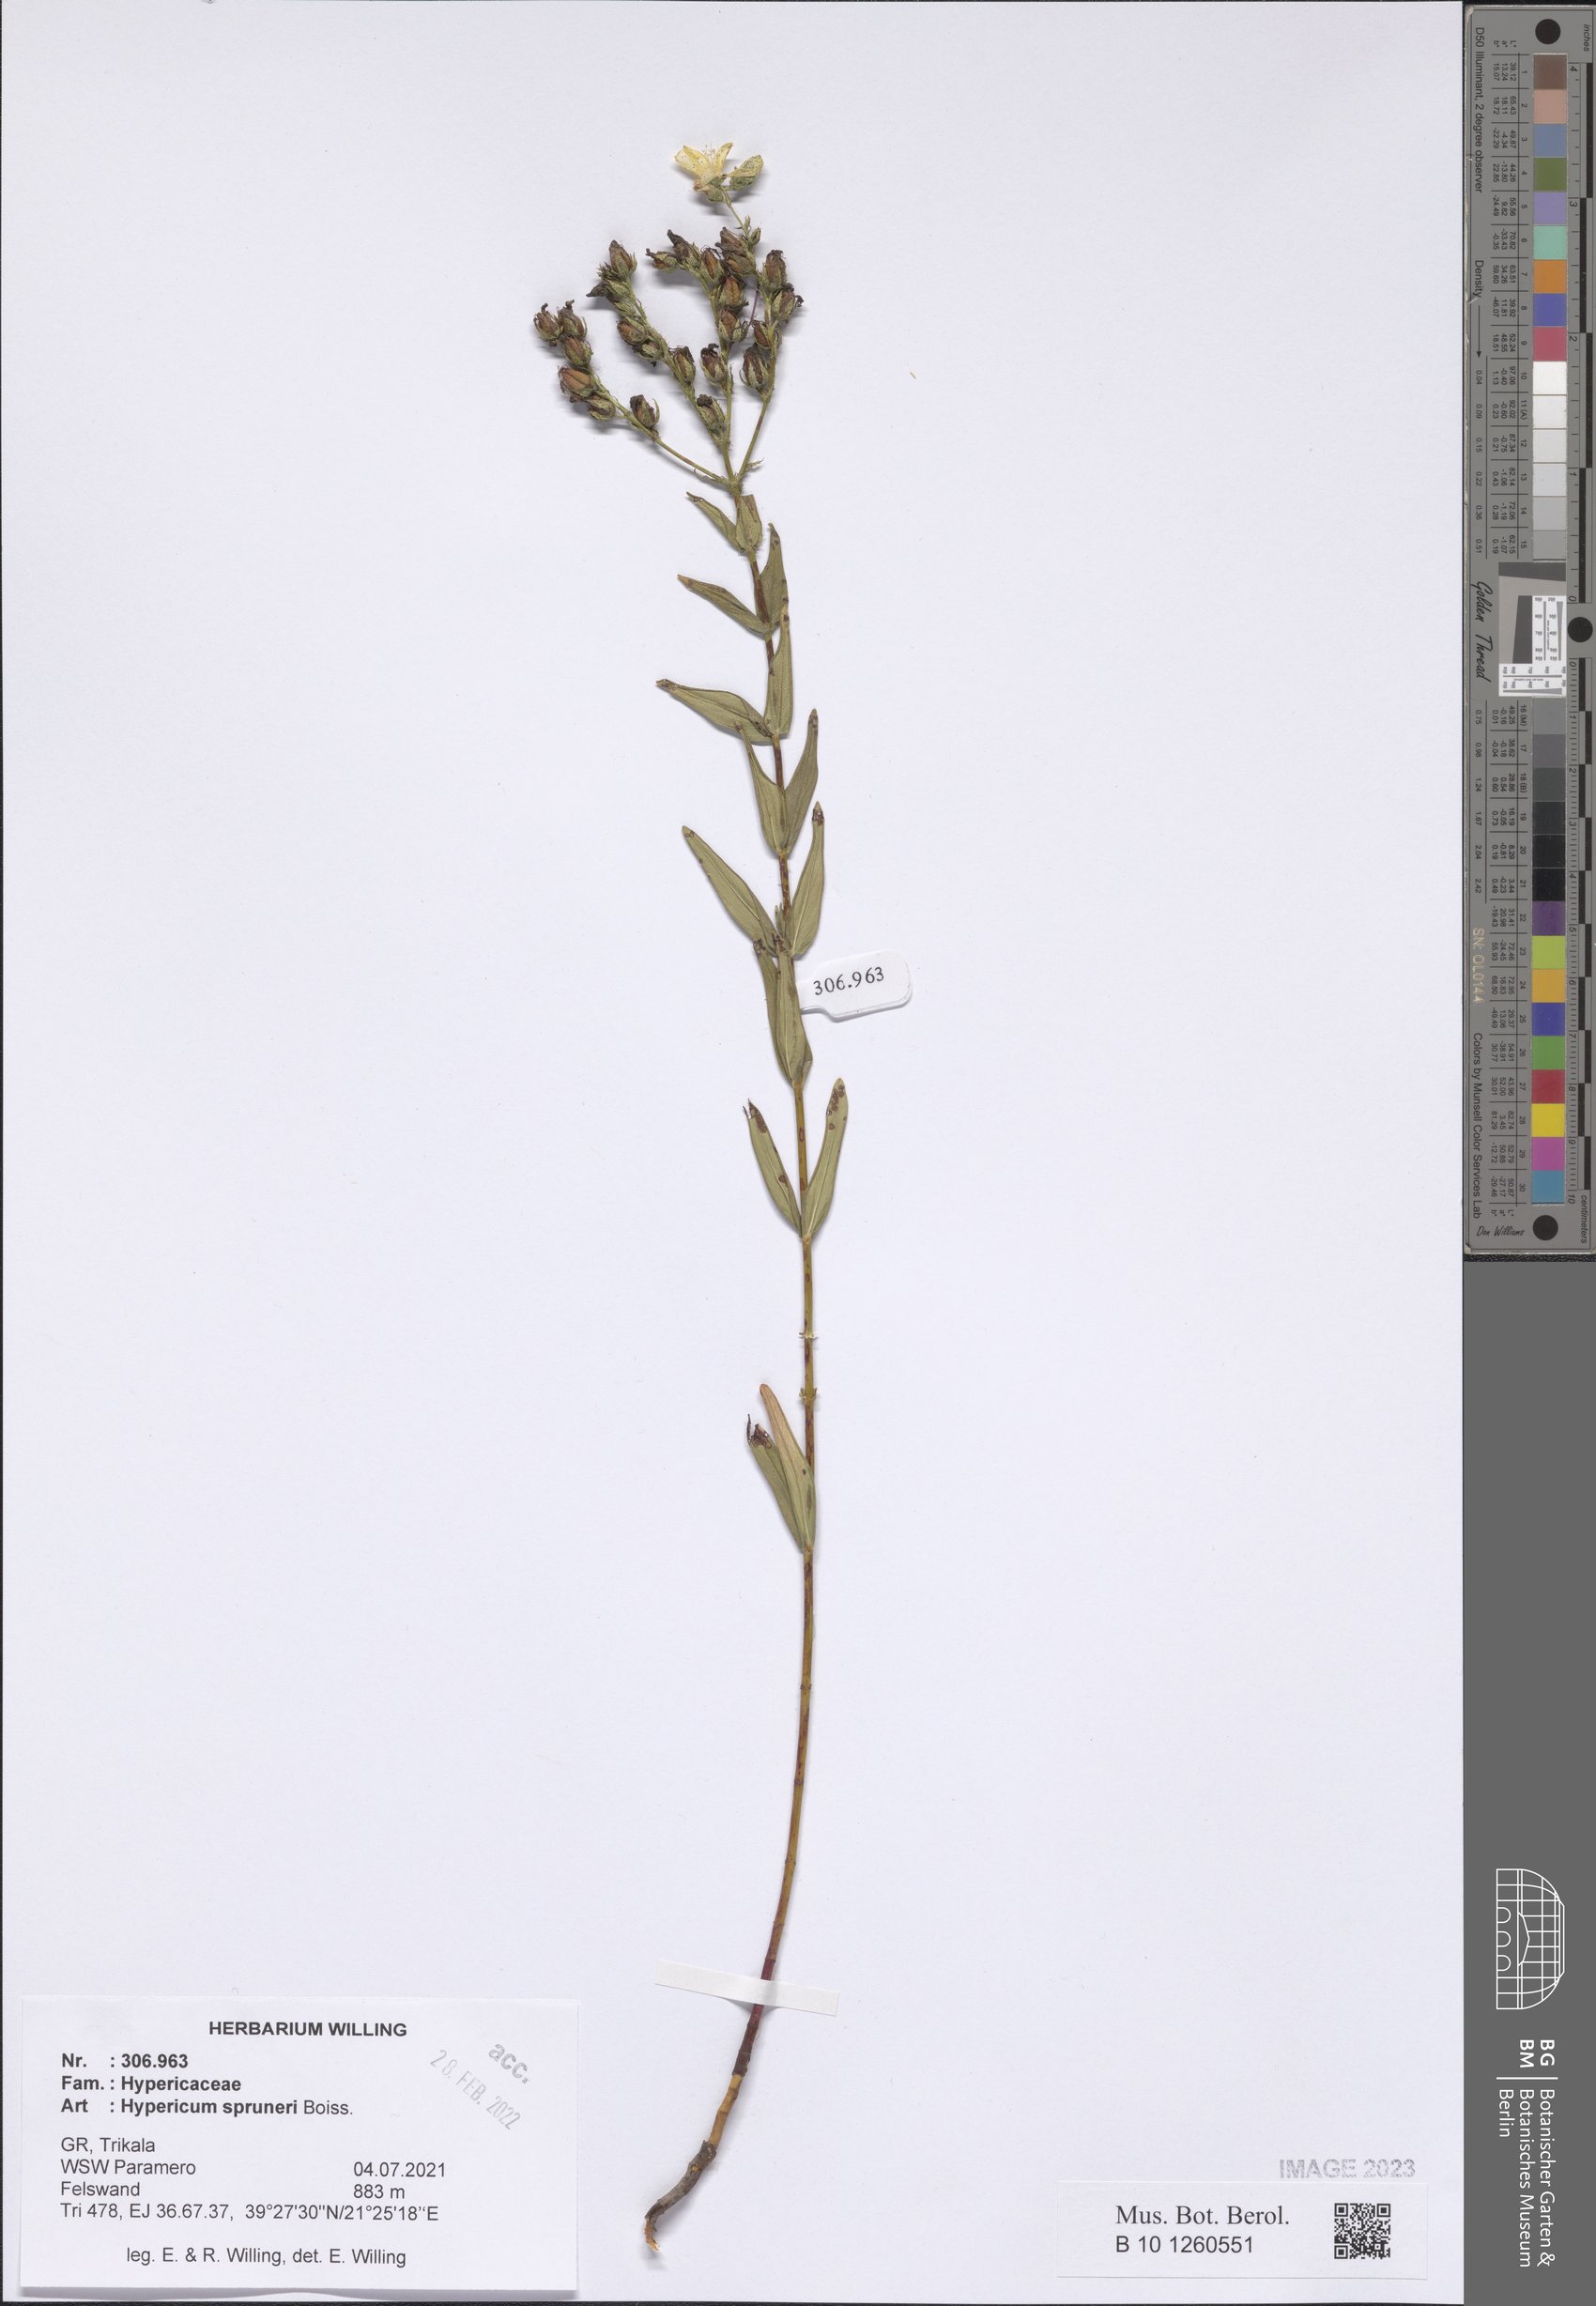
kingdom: Plantae
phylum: Tracheophyta
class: Magnoliopsida
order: Malpighiales
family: Hypericaceae
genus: Hypericum
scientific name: Hypericum spruneri
